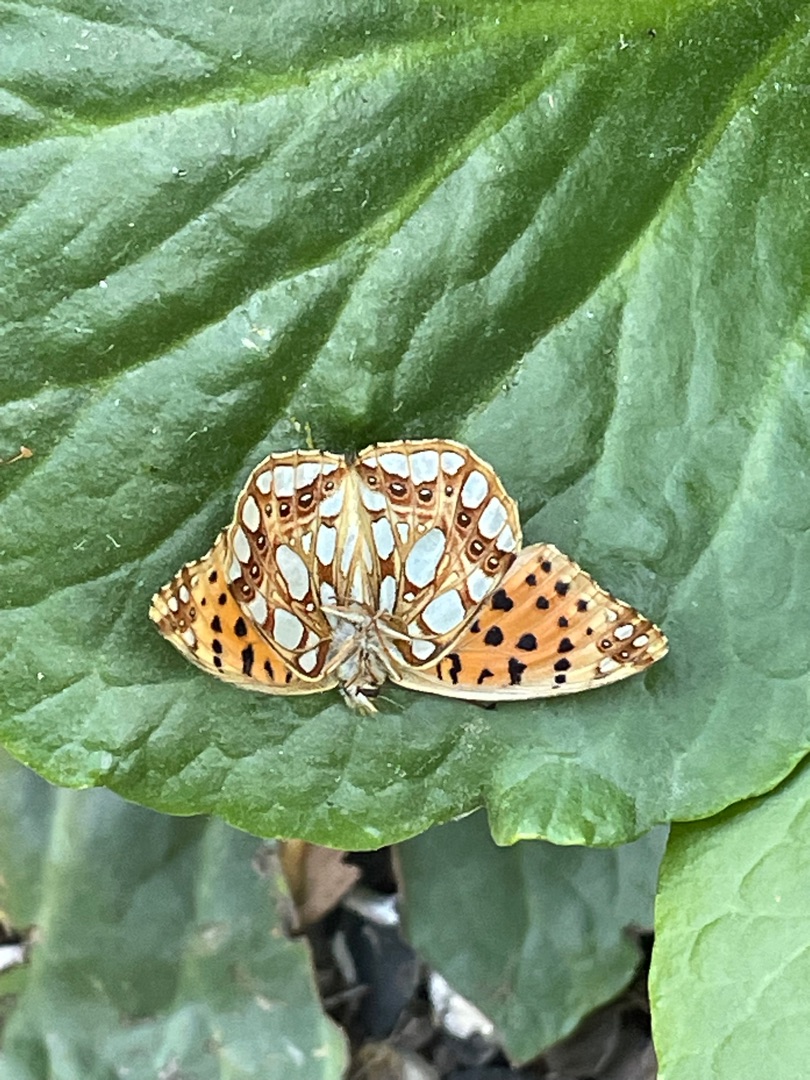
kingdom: Animalia
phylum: Arthropoda
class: Insecta
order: Lepidoptera
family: Nymphalidae
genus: Issoria
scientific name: Issoria lathonia
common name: Storplettet perlemorsommerfugl
